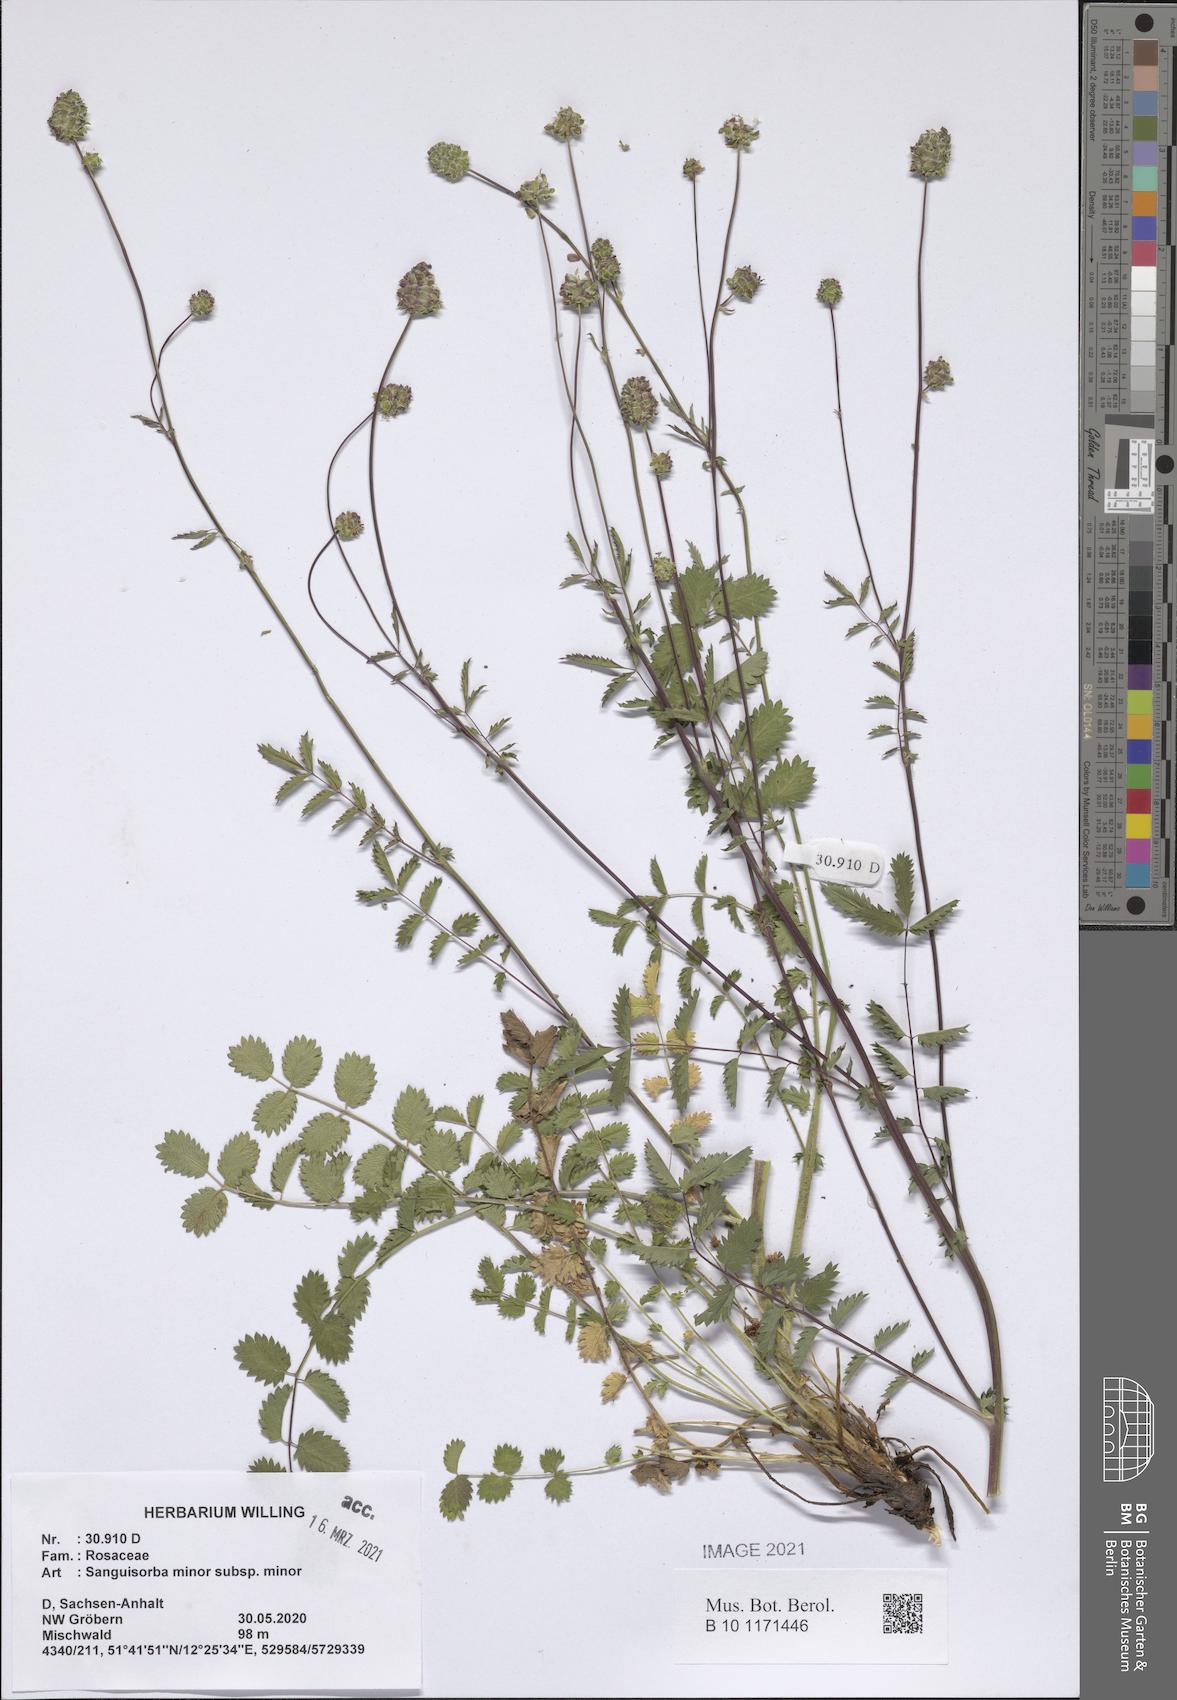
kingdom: Plantae
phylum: Tracheophyta
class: Magnoliopsida
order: Rosales
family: Rosaceae
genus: Poterium
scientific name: Poterium sanguisorba
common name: Salad burnet
